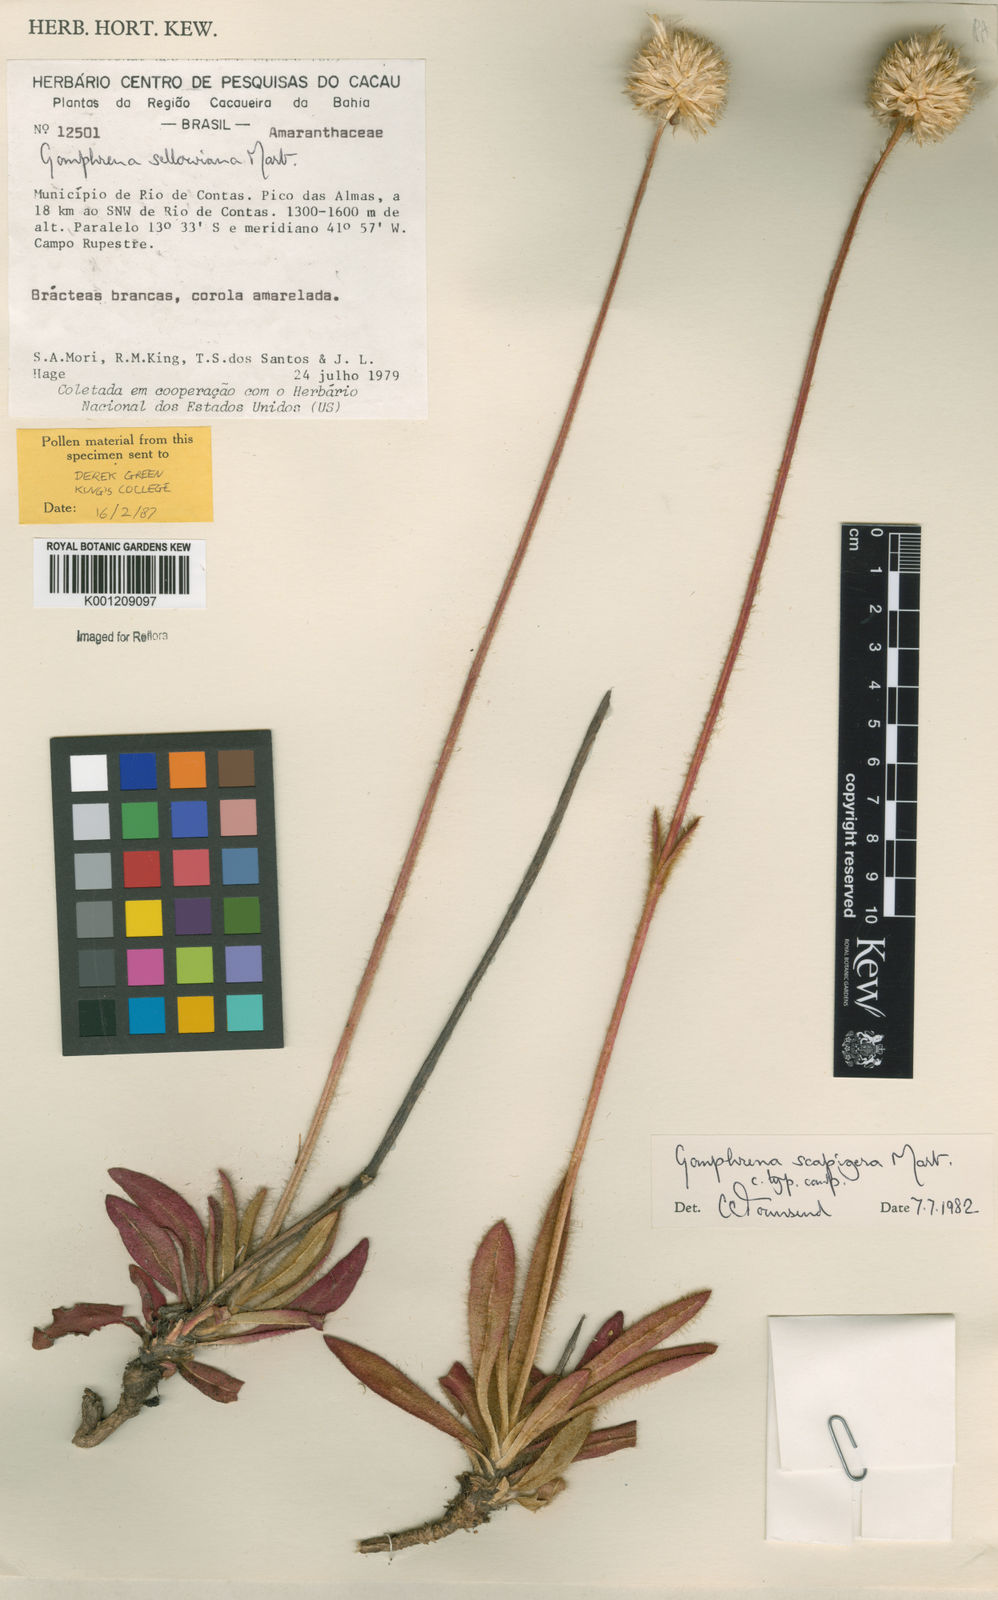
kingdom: Plantae
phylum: Tracheophyta
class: Magnoliopsida
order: Caryophyllales
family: Amaranthaceae
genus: Gomphrena
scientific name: Gomphrena scapigera
